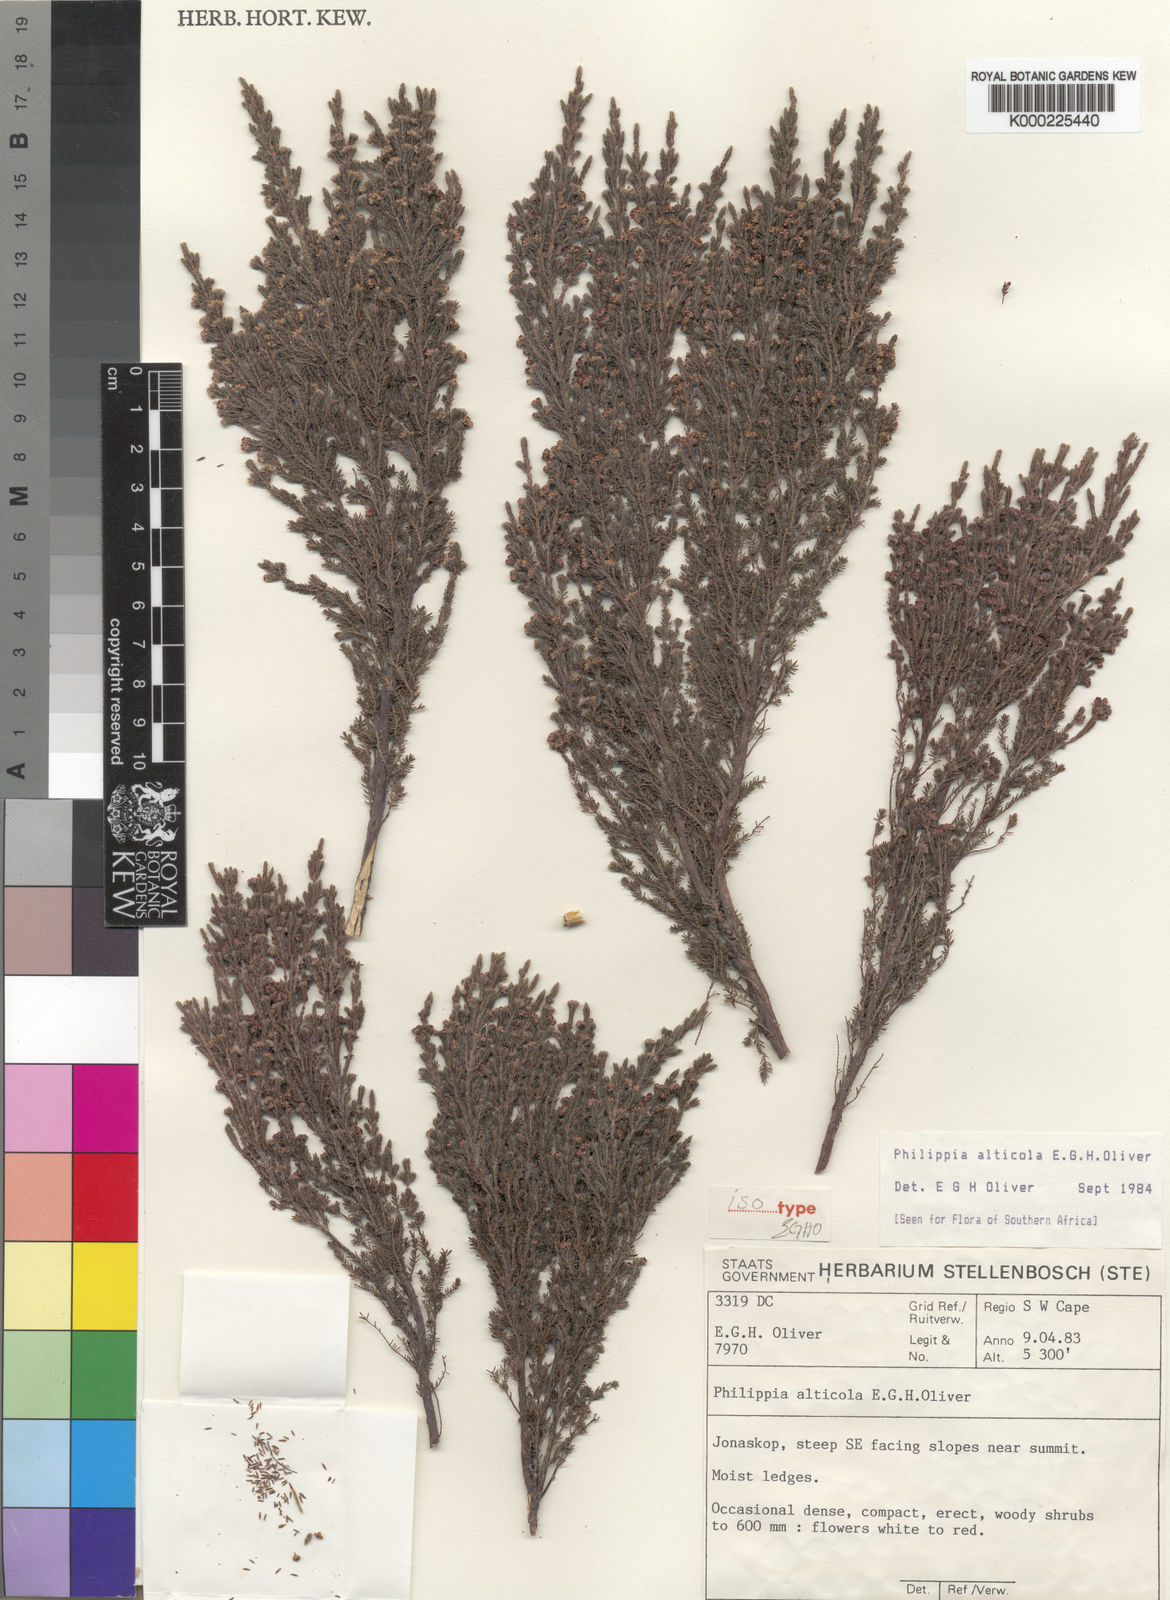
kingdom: Plantae
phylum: Tracheophyta
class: Magnoliopsida
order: Ericales
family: Ericaceae
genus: Erica
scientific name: Erica altiphila
